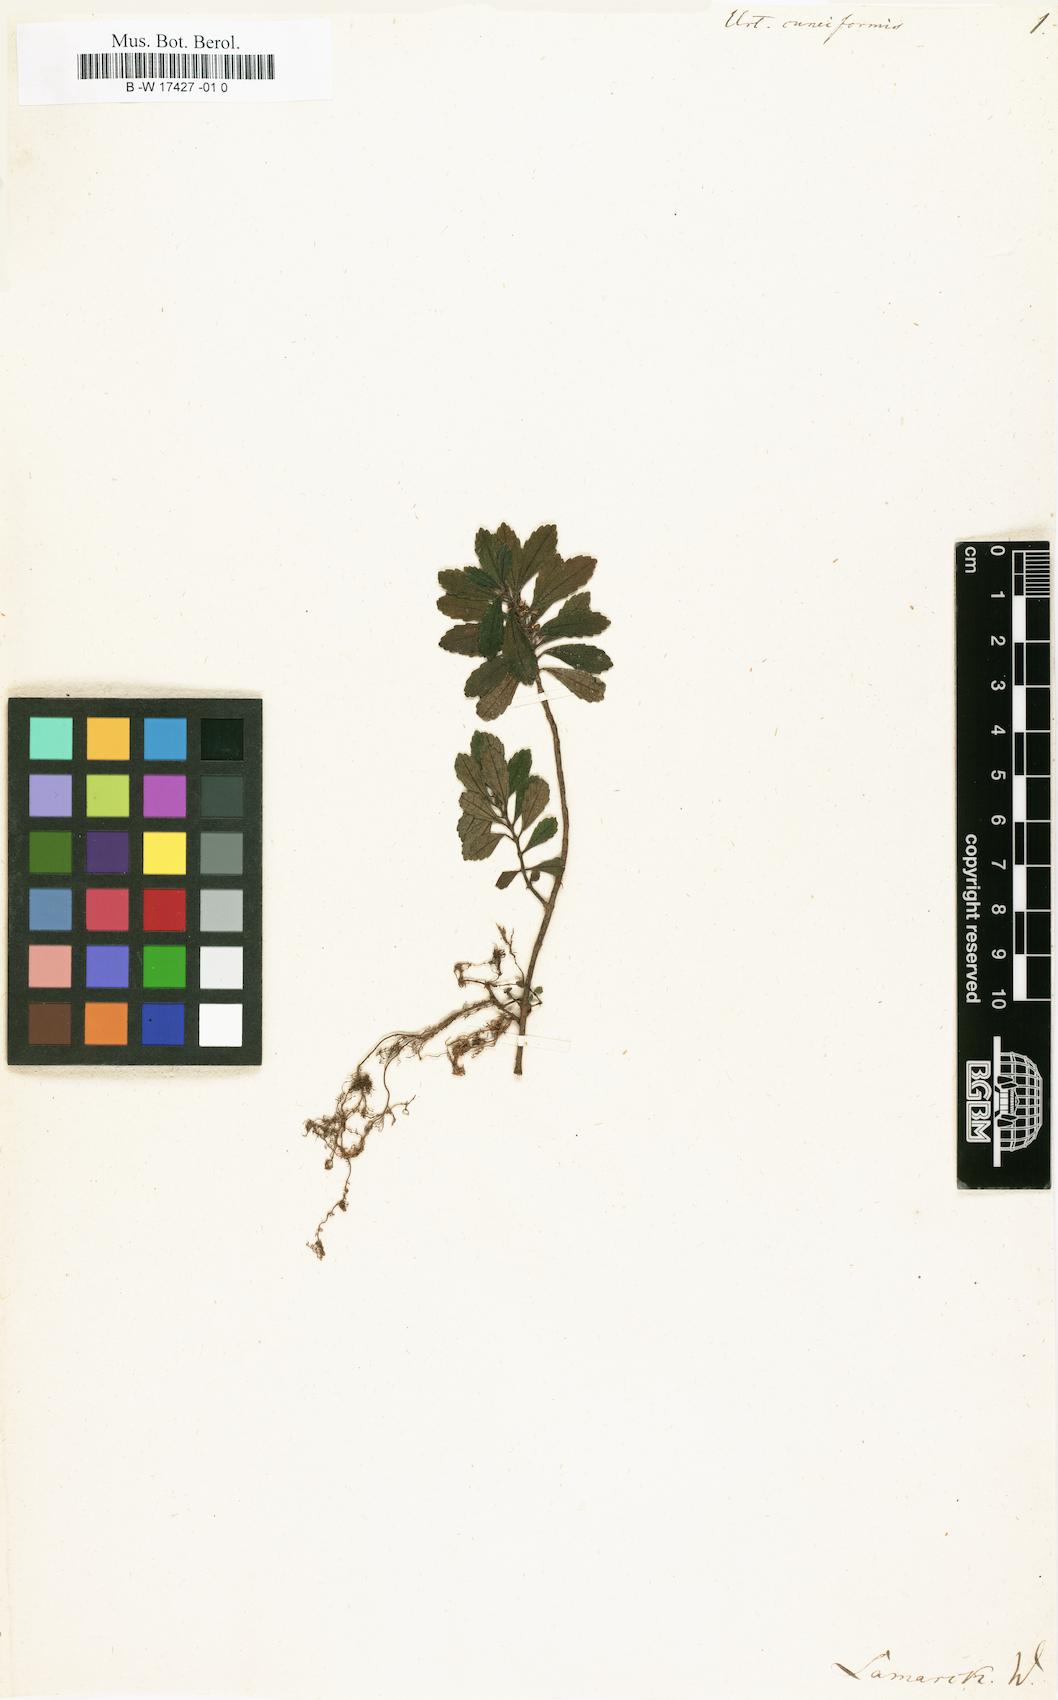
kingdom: Plantae
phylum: Tracheophyta
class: Magnoliopsida
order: Rosales
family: Urticaceae
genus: Pilea
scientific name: Pilea
